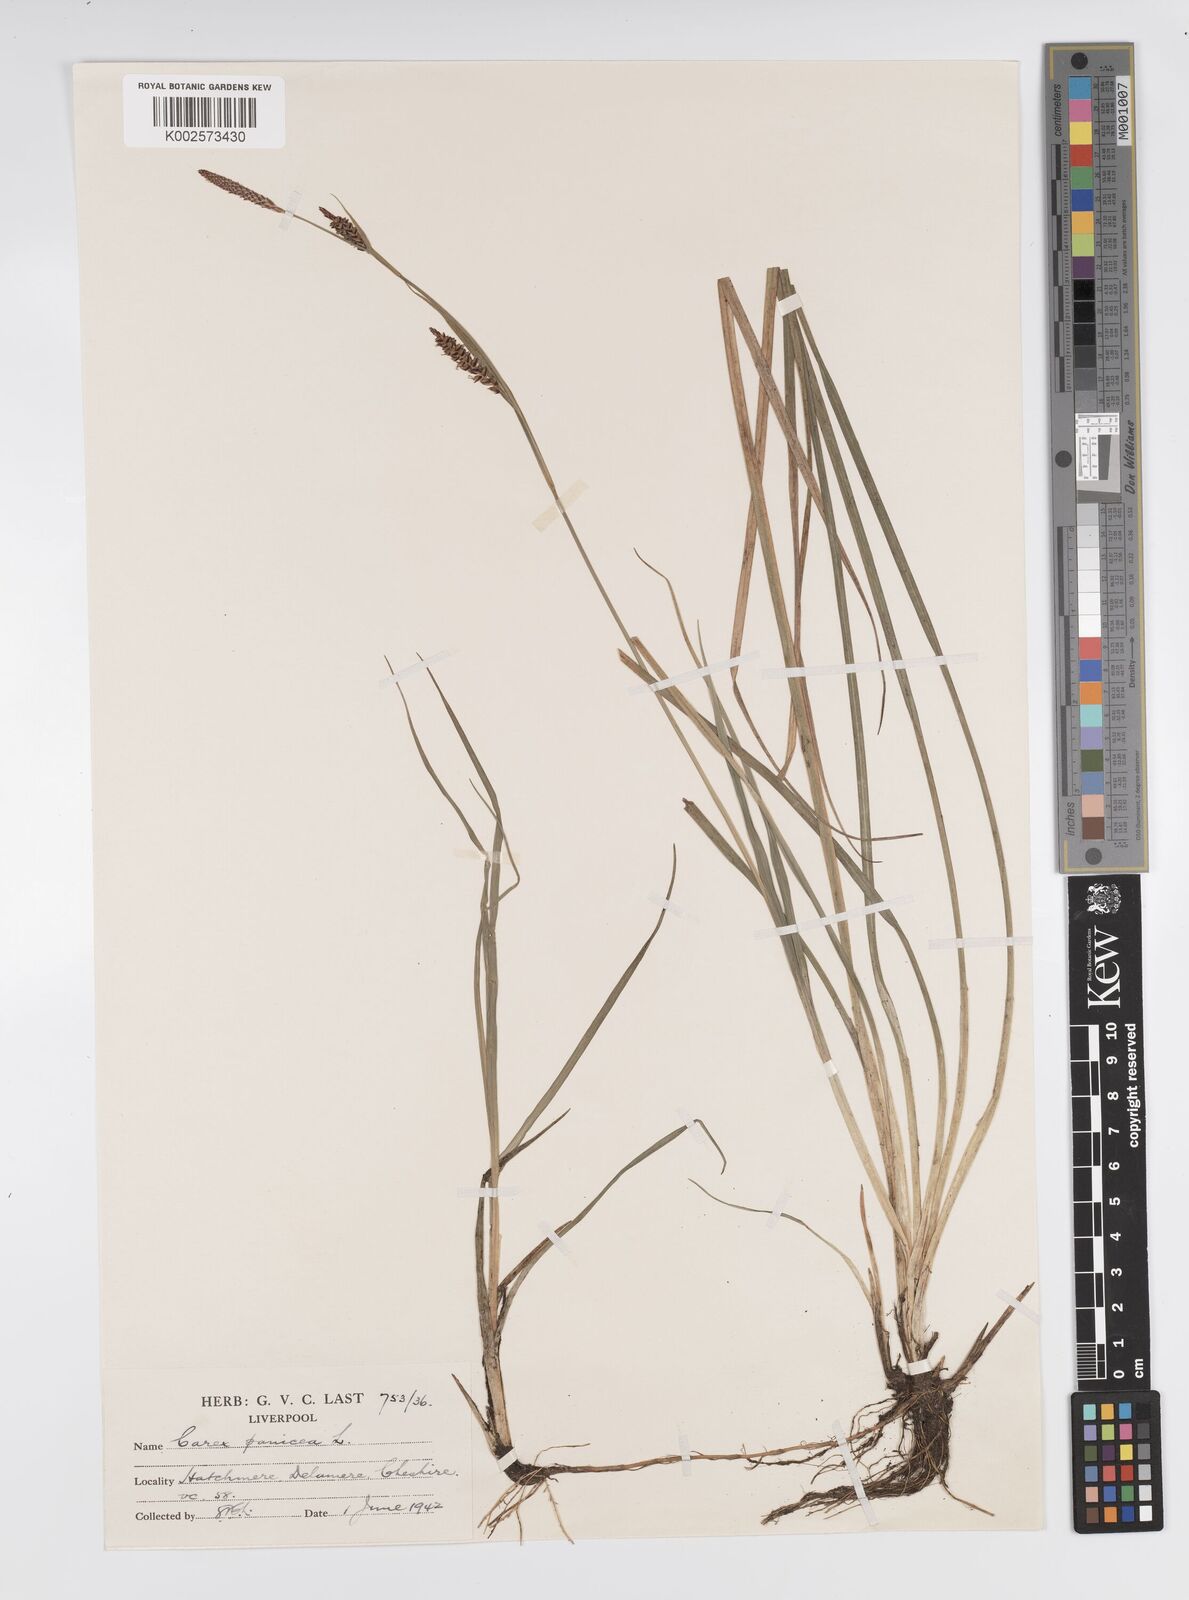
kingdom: Plantae
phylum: Tracheophyta
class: Liliopsida
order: Poales
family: Cyperaceae
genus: Carex
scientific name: Carex panicea
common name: Carnation sedge
